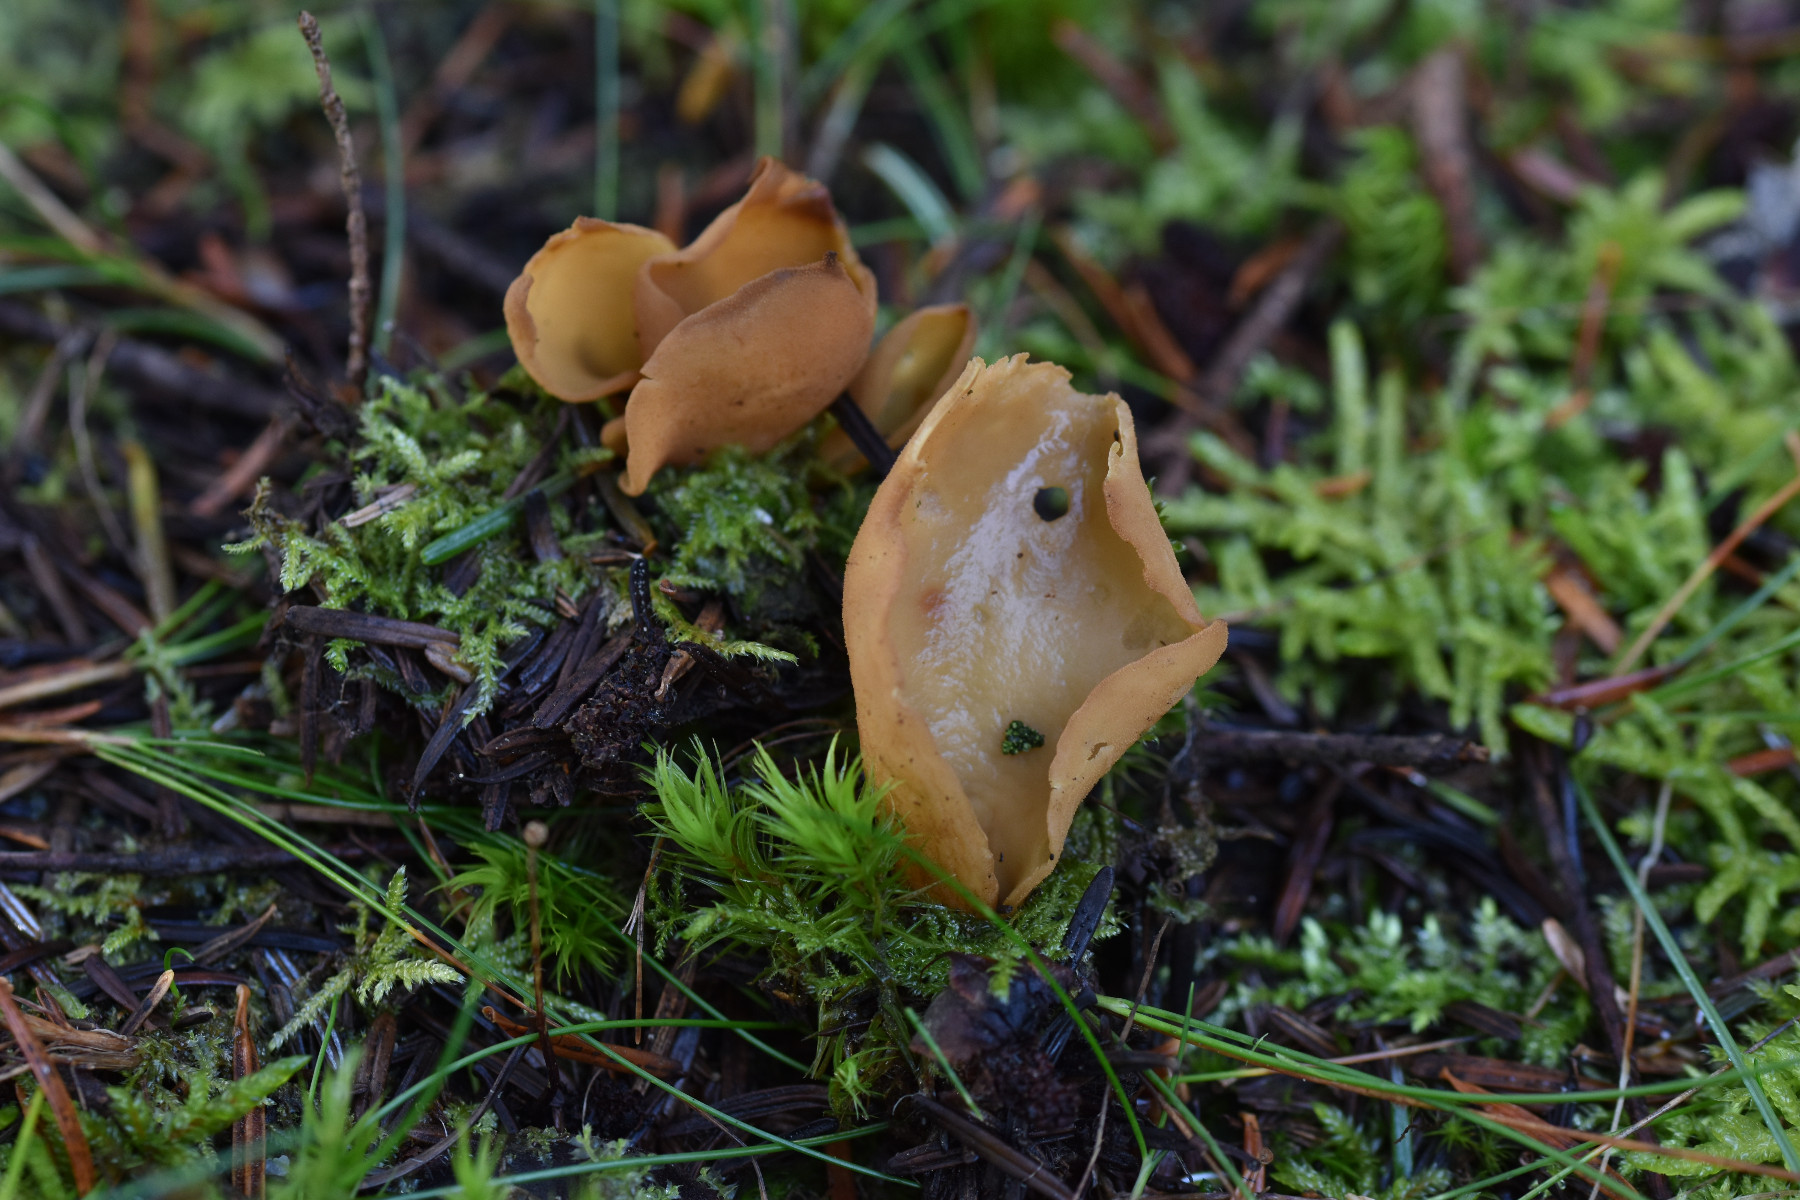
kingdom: Fungi
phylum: Ascomycota
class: Pezizomycetes
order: Pezizales
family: Otideaceae
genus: Otidea
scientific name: Otidea nannfeldtii
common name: jolle-ørebæger
